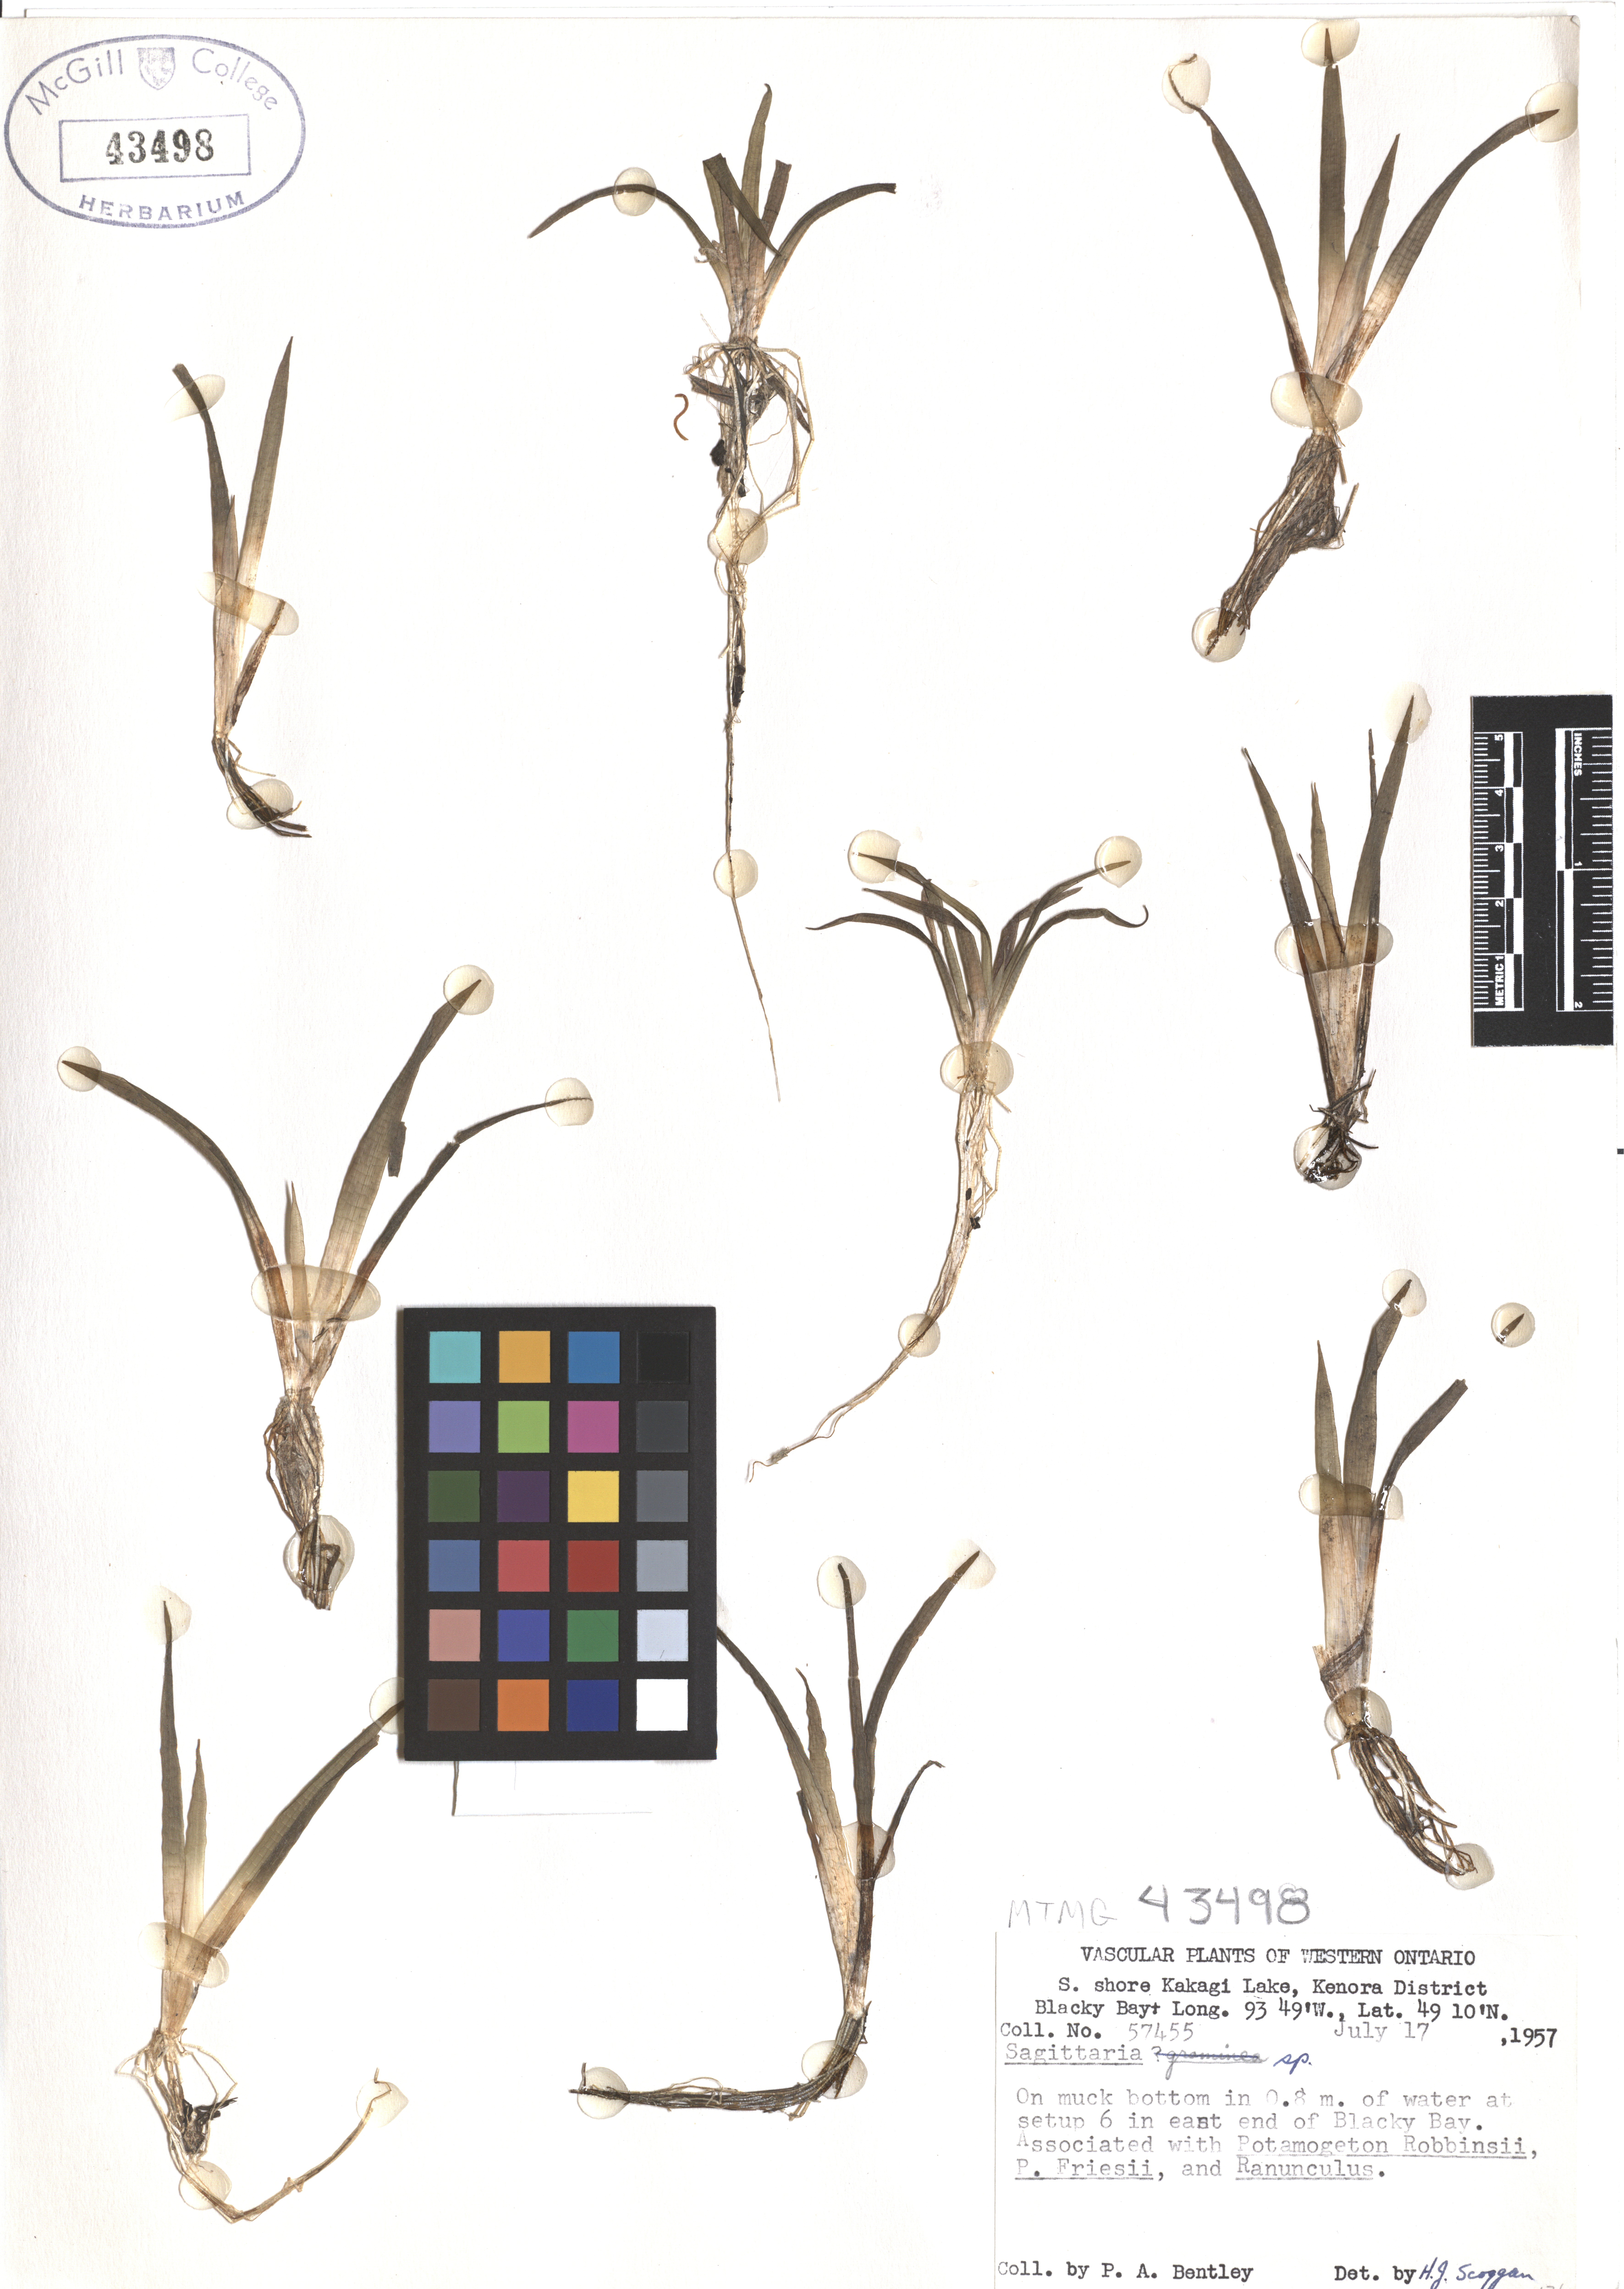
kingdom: Plantae
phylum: Tracheophyta
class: Liliopsida
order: Alismatales
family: Alismataceae
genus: Sagittaria
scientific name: Sagittaria
